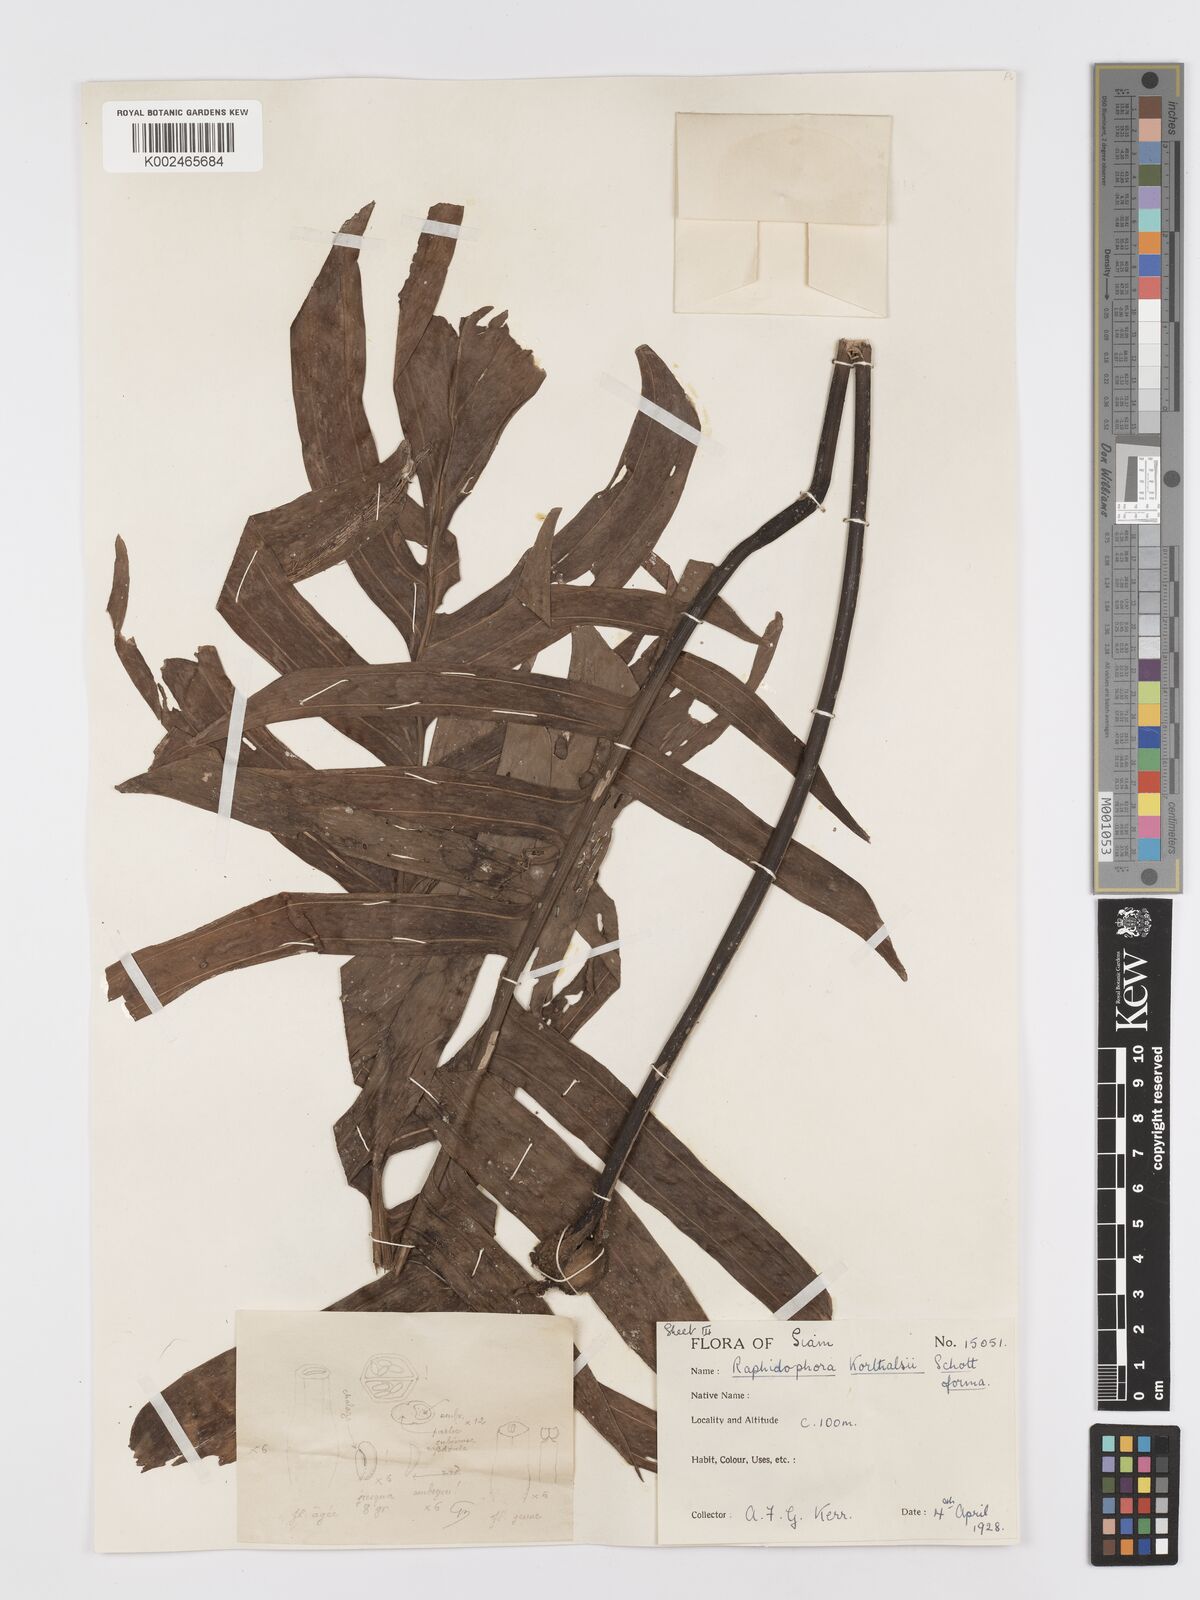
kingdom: Plantae
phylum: Tracheophyta
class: Liliopsida
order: Alismatales
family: Araceae
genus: Rhaphidophora
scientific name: Rhaphidophora korthalsii
